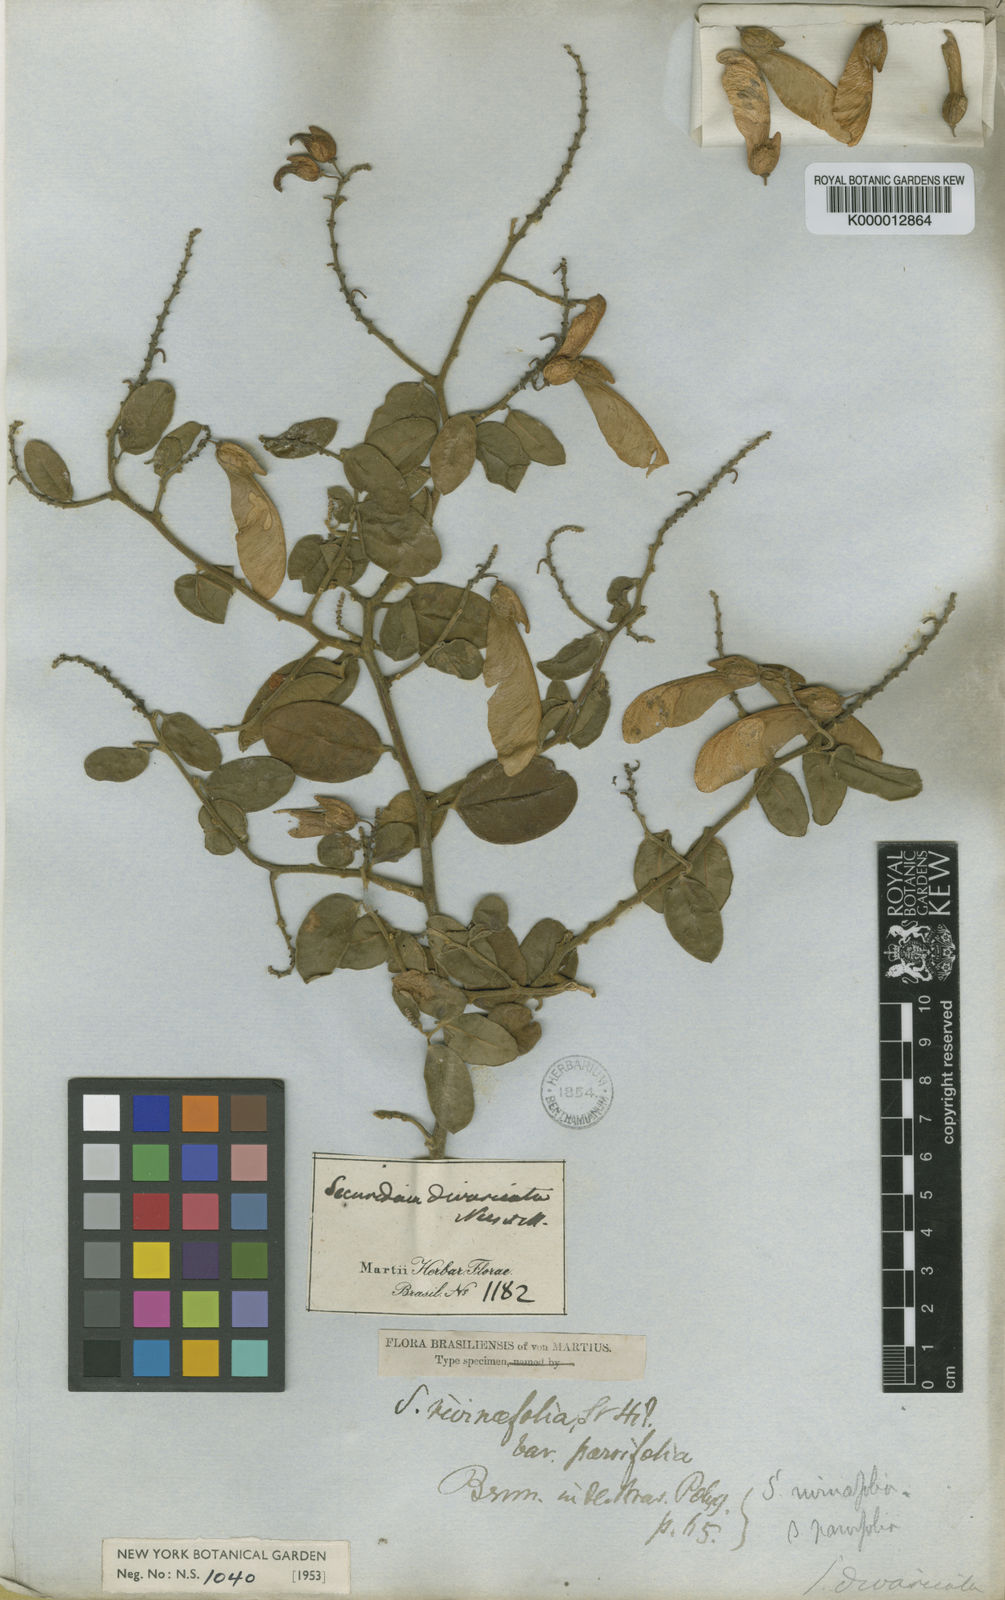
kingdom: Plantae
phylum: Tracheophyta
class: Magnoliopsida
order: Fabales
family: Polygalaceae
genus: Securidaca
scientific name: Securidaca rivinifolia
